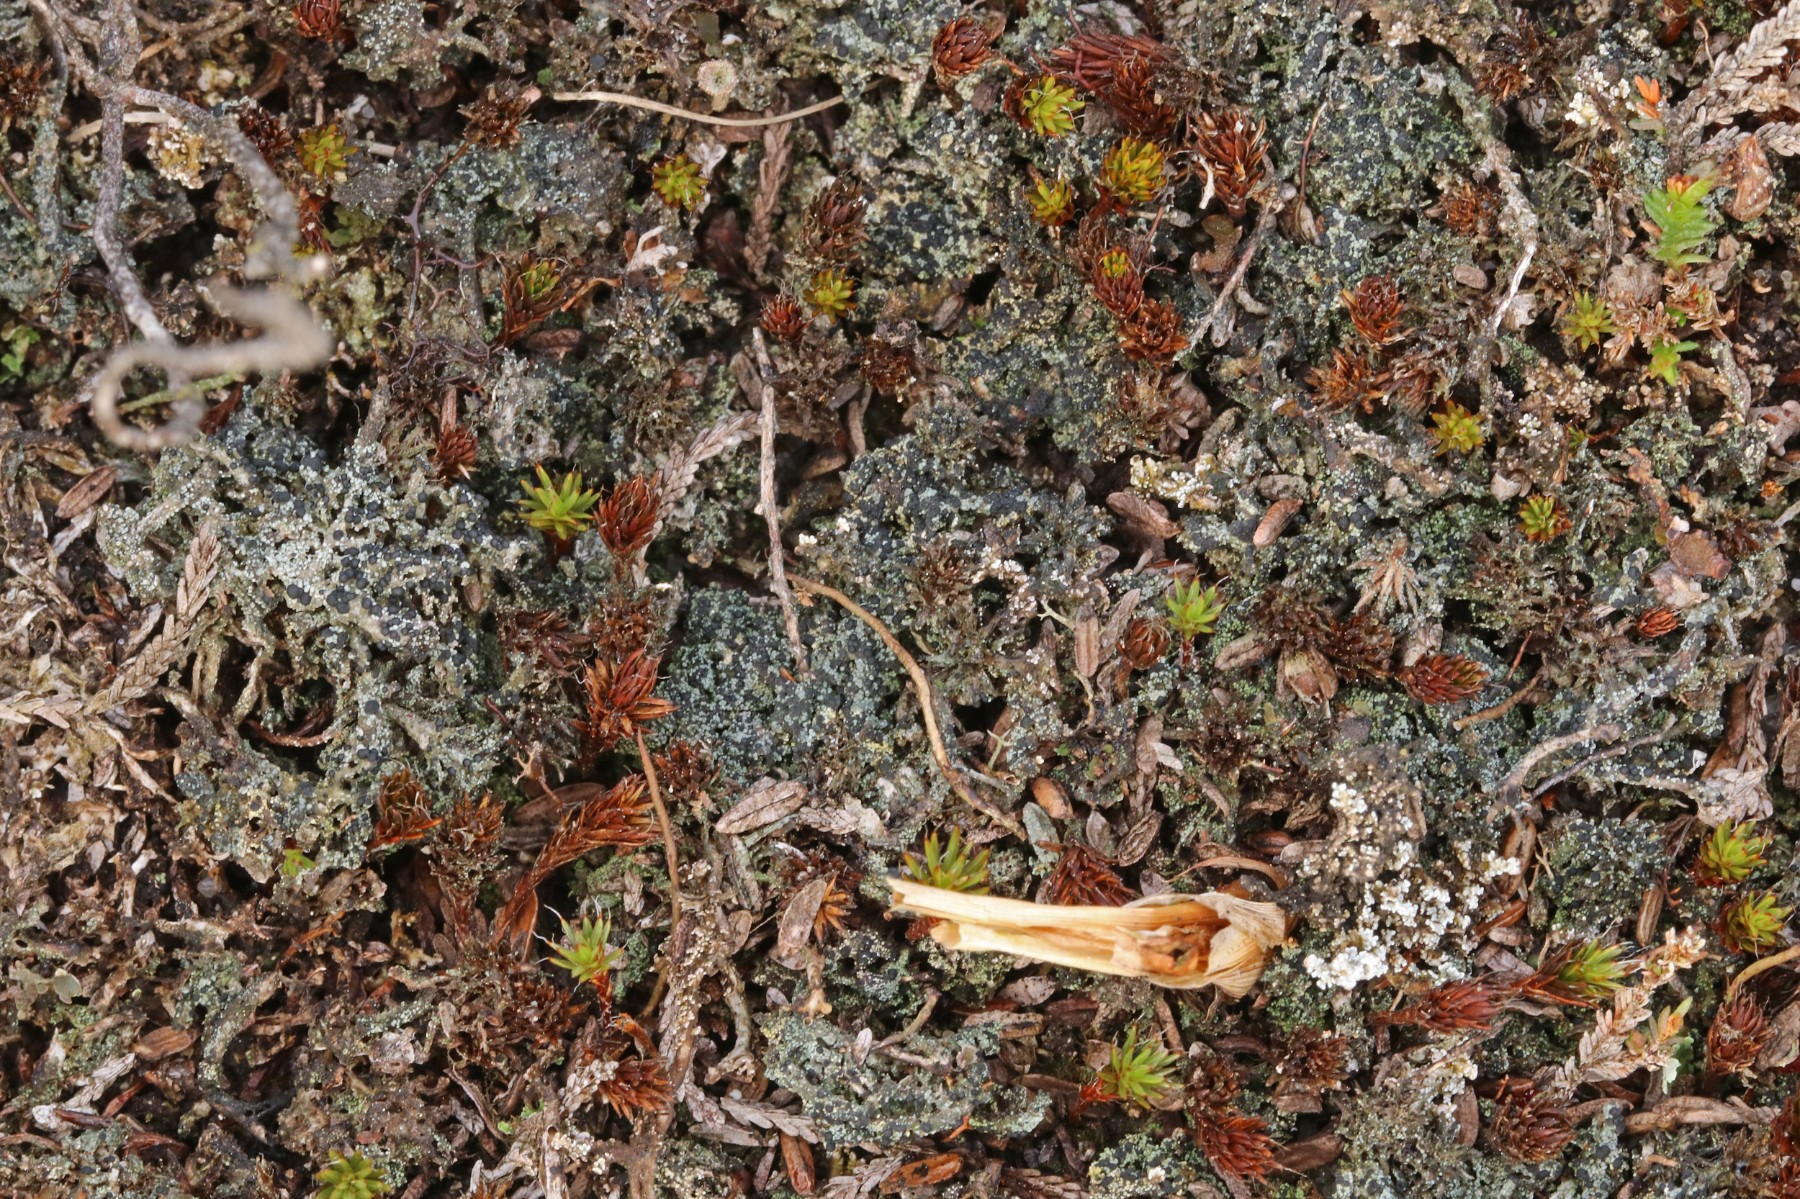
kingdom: Fungi
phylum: Ascomycota
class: Lecanoromycetes
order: Lecanorales
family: Byssolomataceae
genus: Micarea
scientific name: Micarea lignaria
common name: tørve-knaplav
